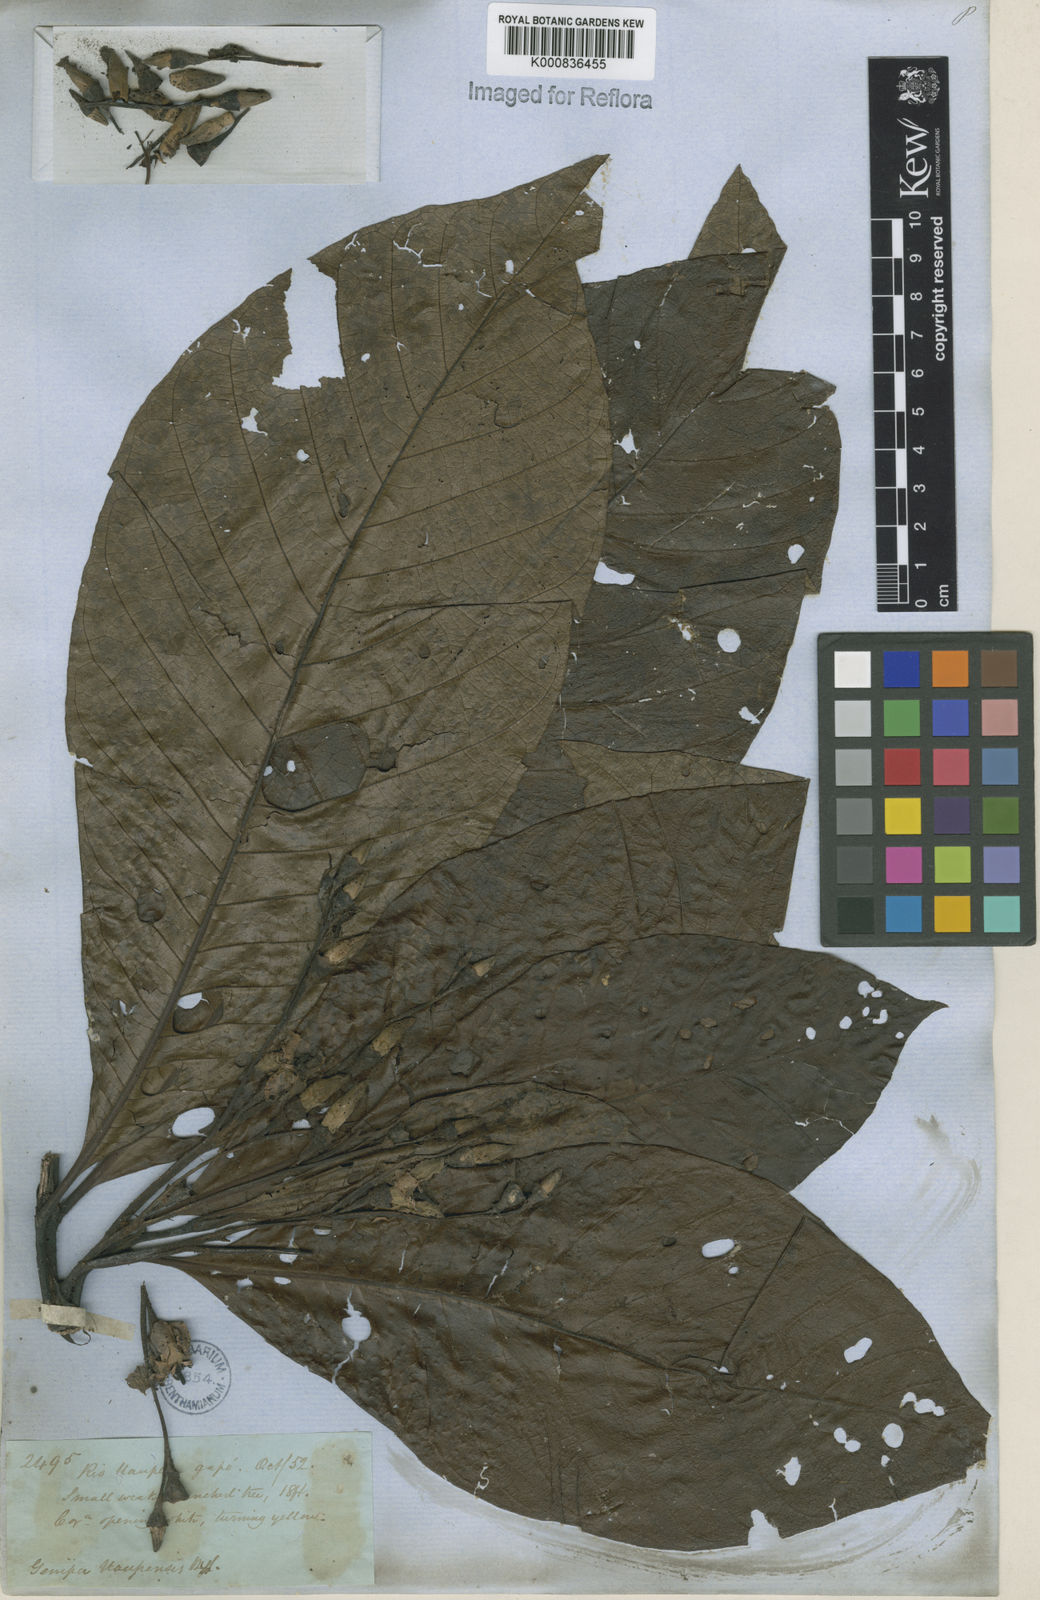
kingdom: Plantae
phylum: Tracheophyta
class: Magnoliopsida
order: Gentianales
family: Rubiaceae
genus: Genipa
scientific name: Genipa americana
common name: Genipap
